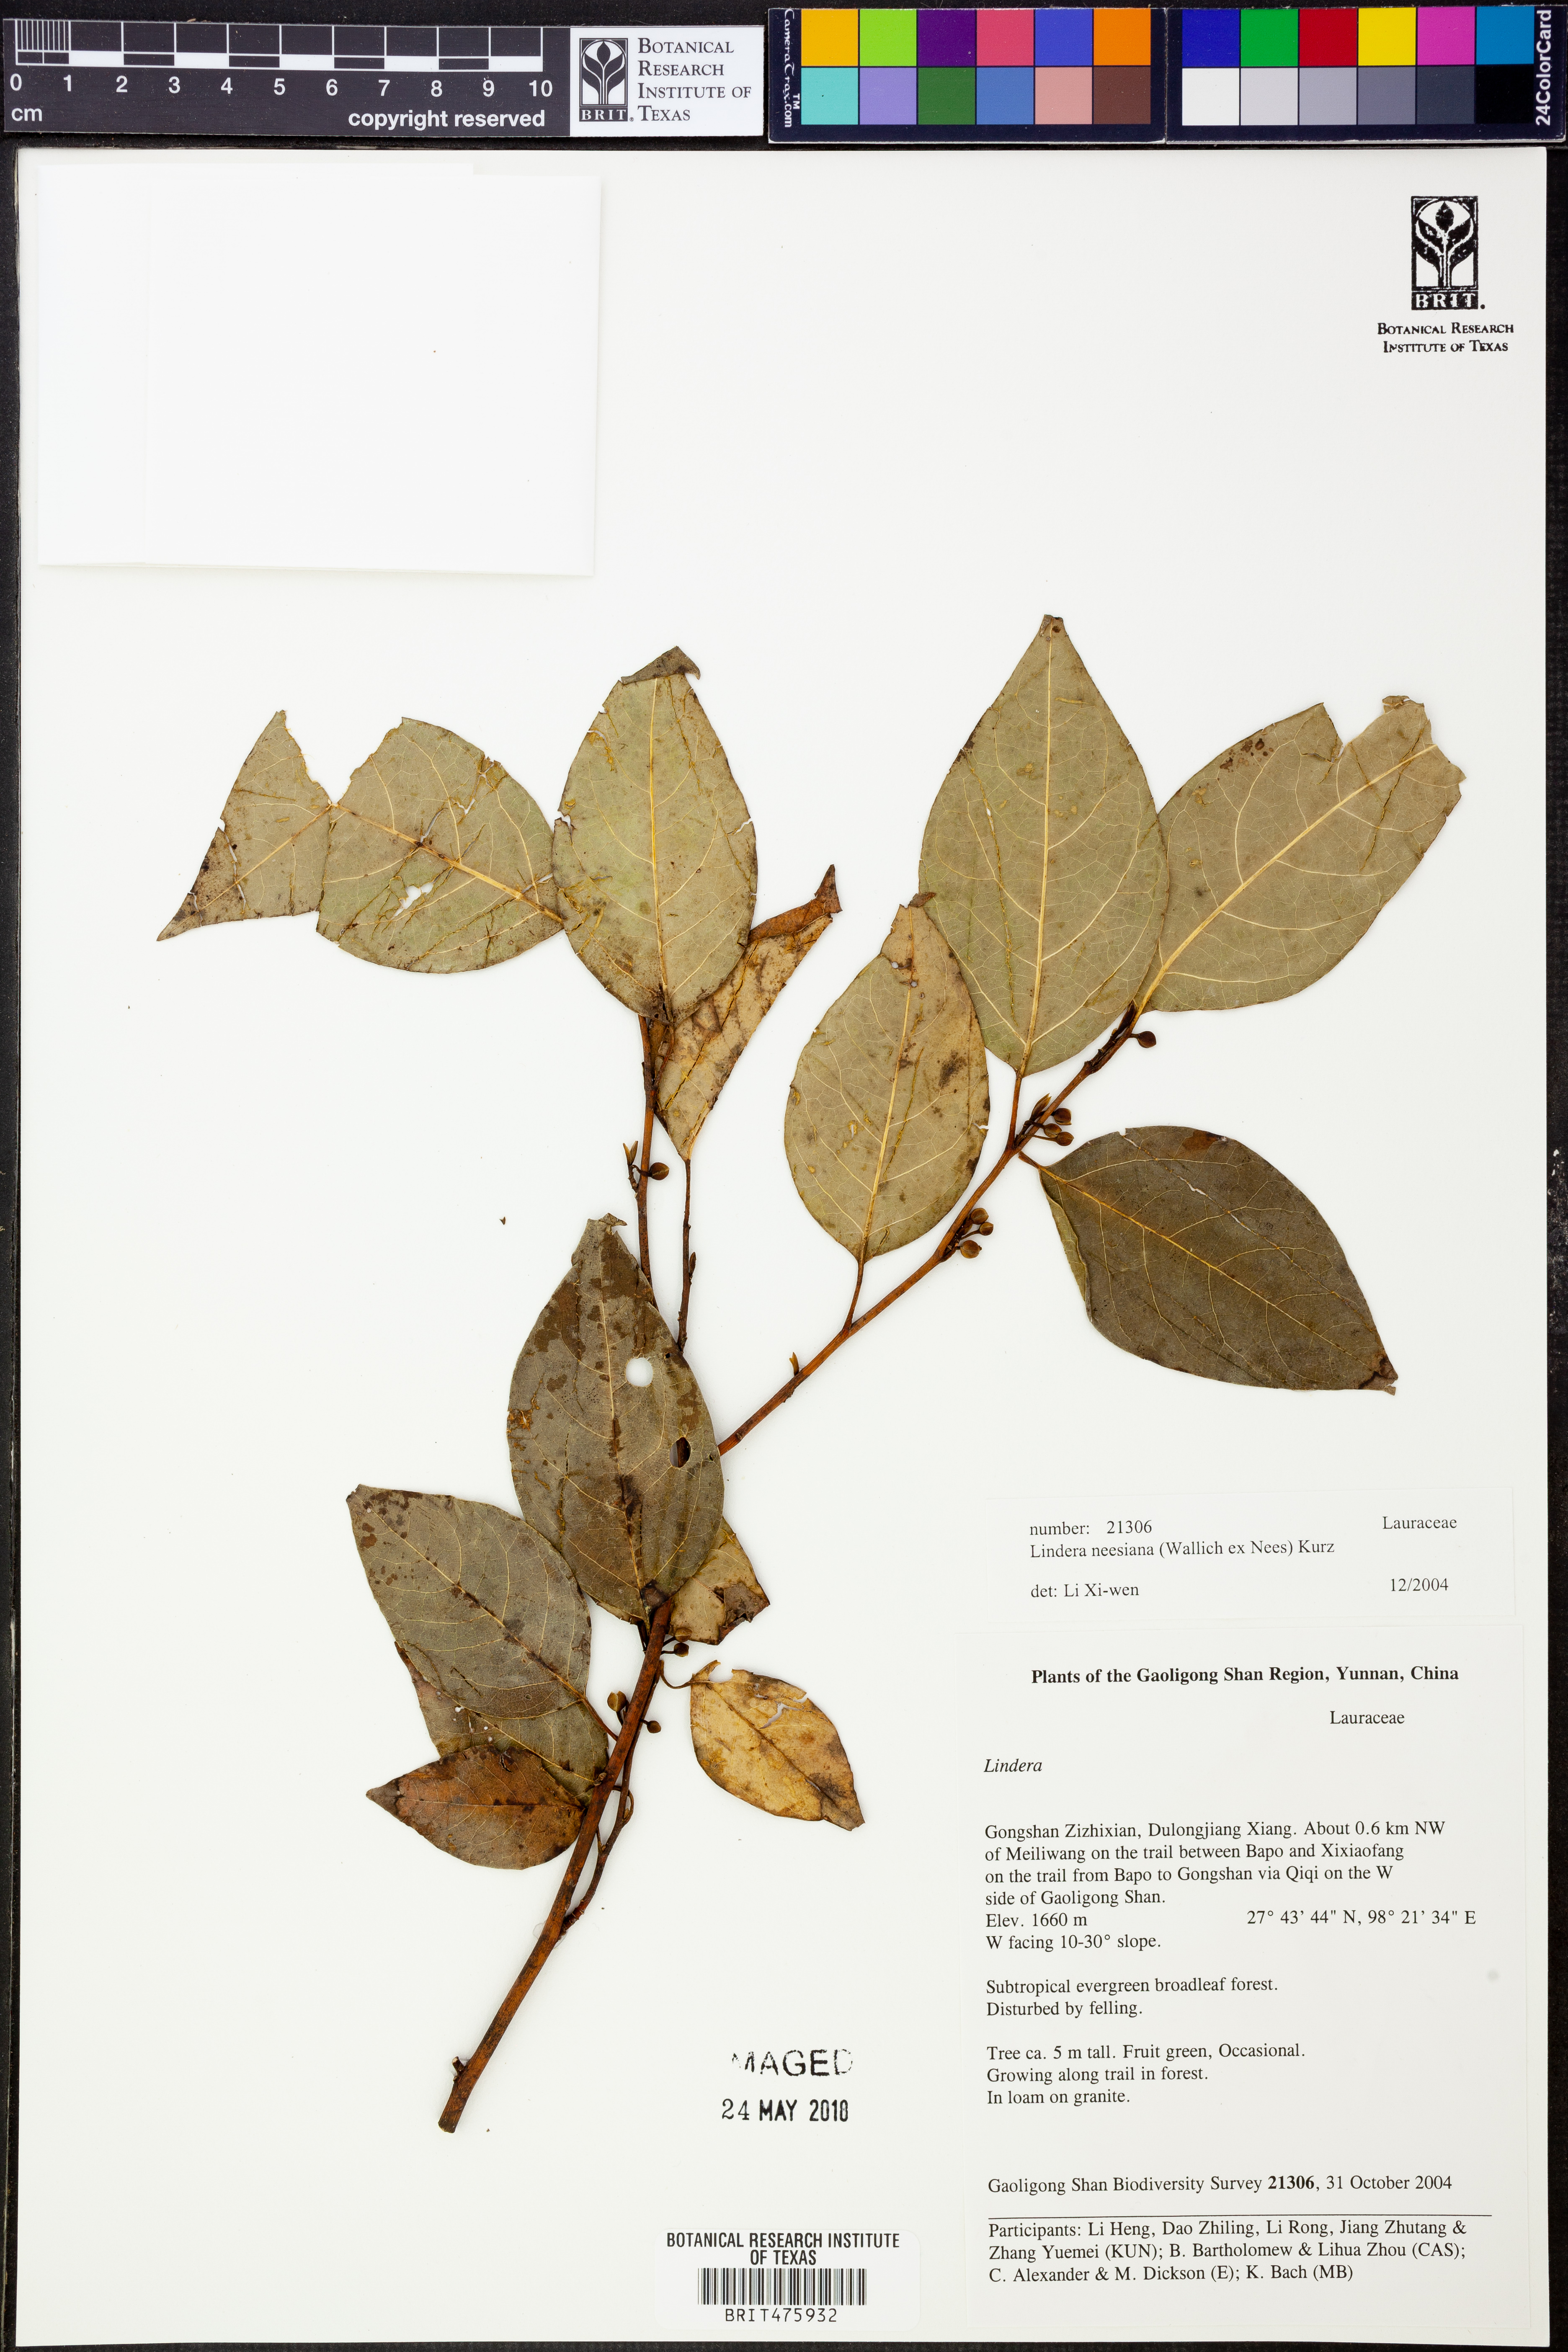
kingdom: Plantae
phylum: Tracheophyta
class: Magnoliopsida
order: Laurales
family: Lauraceae
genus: Lindera
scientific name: Lindera neesiana
